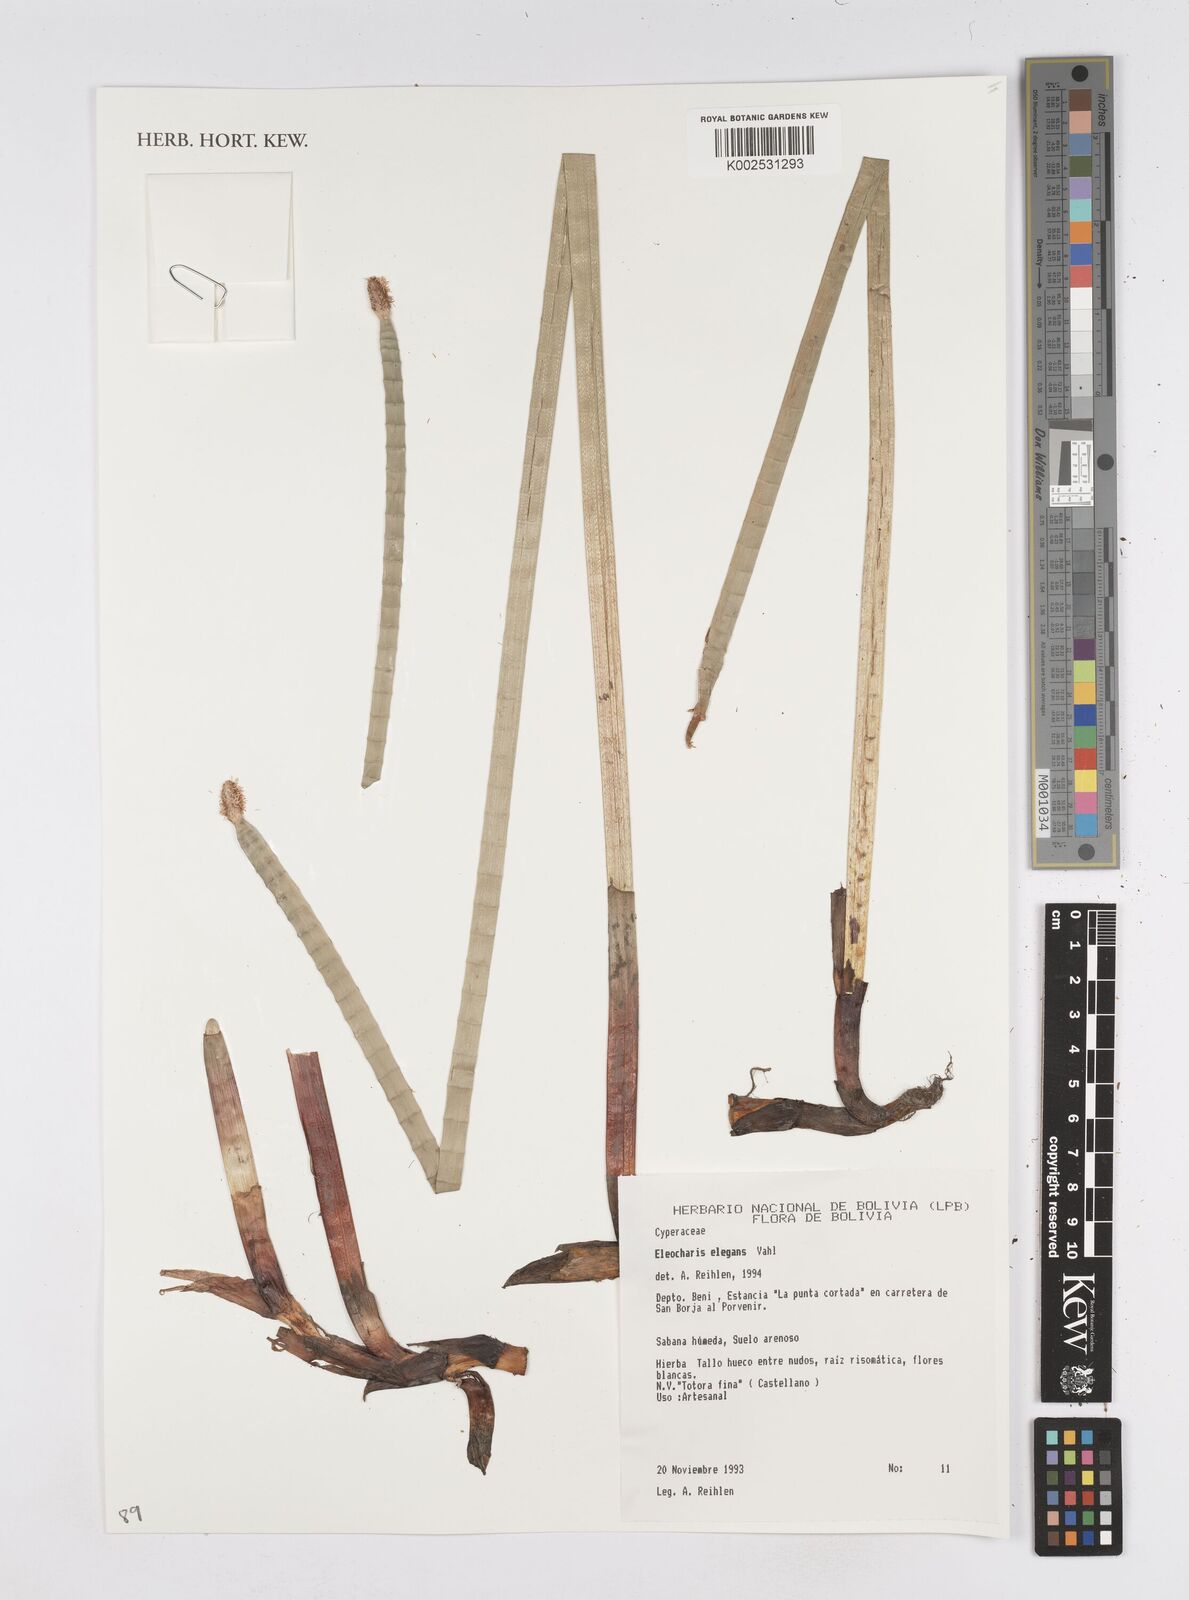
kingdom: Plantae
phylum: Tracheophyta
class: Liliopsida
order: Poales
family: Cyperaceae
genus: Eleocharis
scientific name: Eleocharis elegans
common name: Elegant spike-rush
